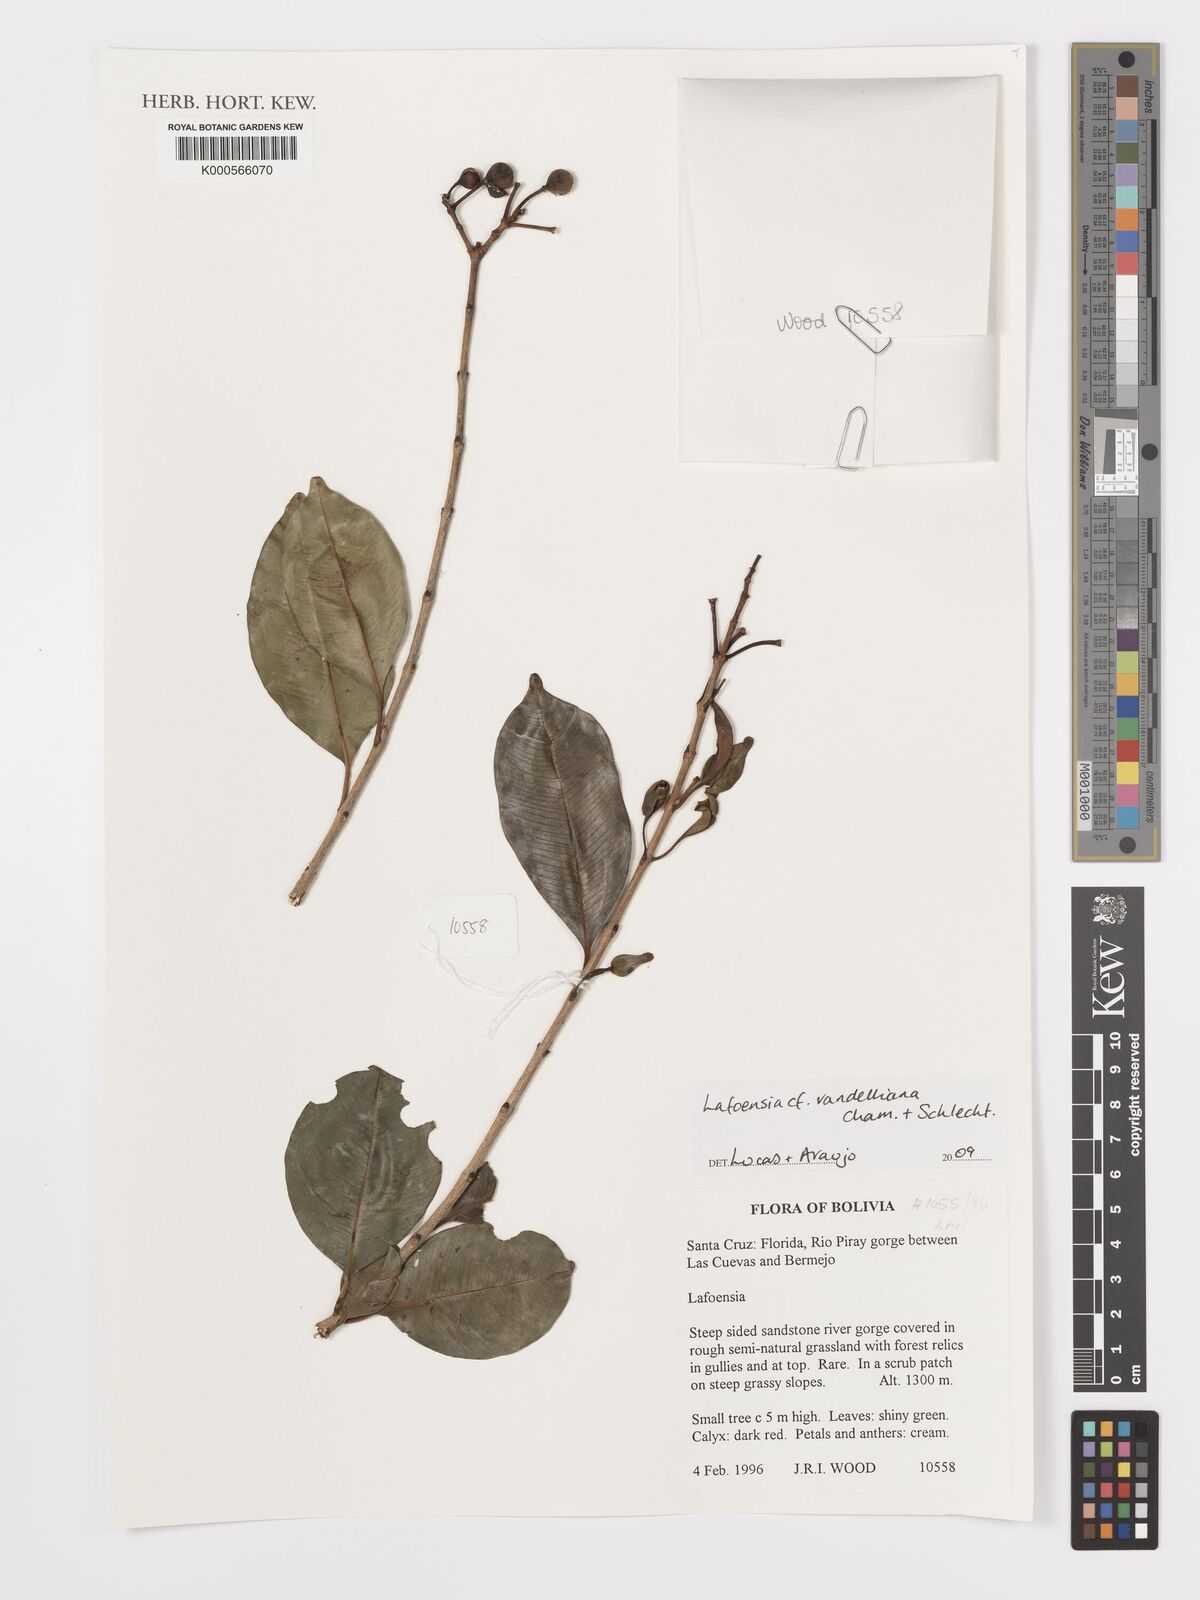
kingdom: Plantae
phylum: Tracheophyta
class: Magnoliopsida
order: Myrtales
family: Lythraceae
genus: Lafoensia
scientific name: Lafoensia vandelliana
